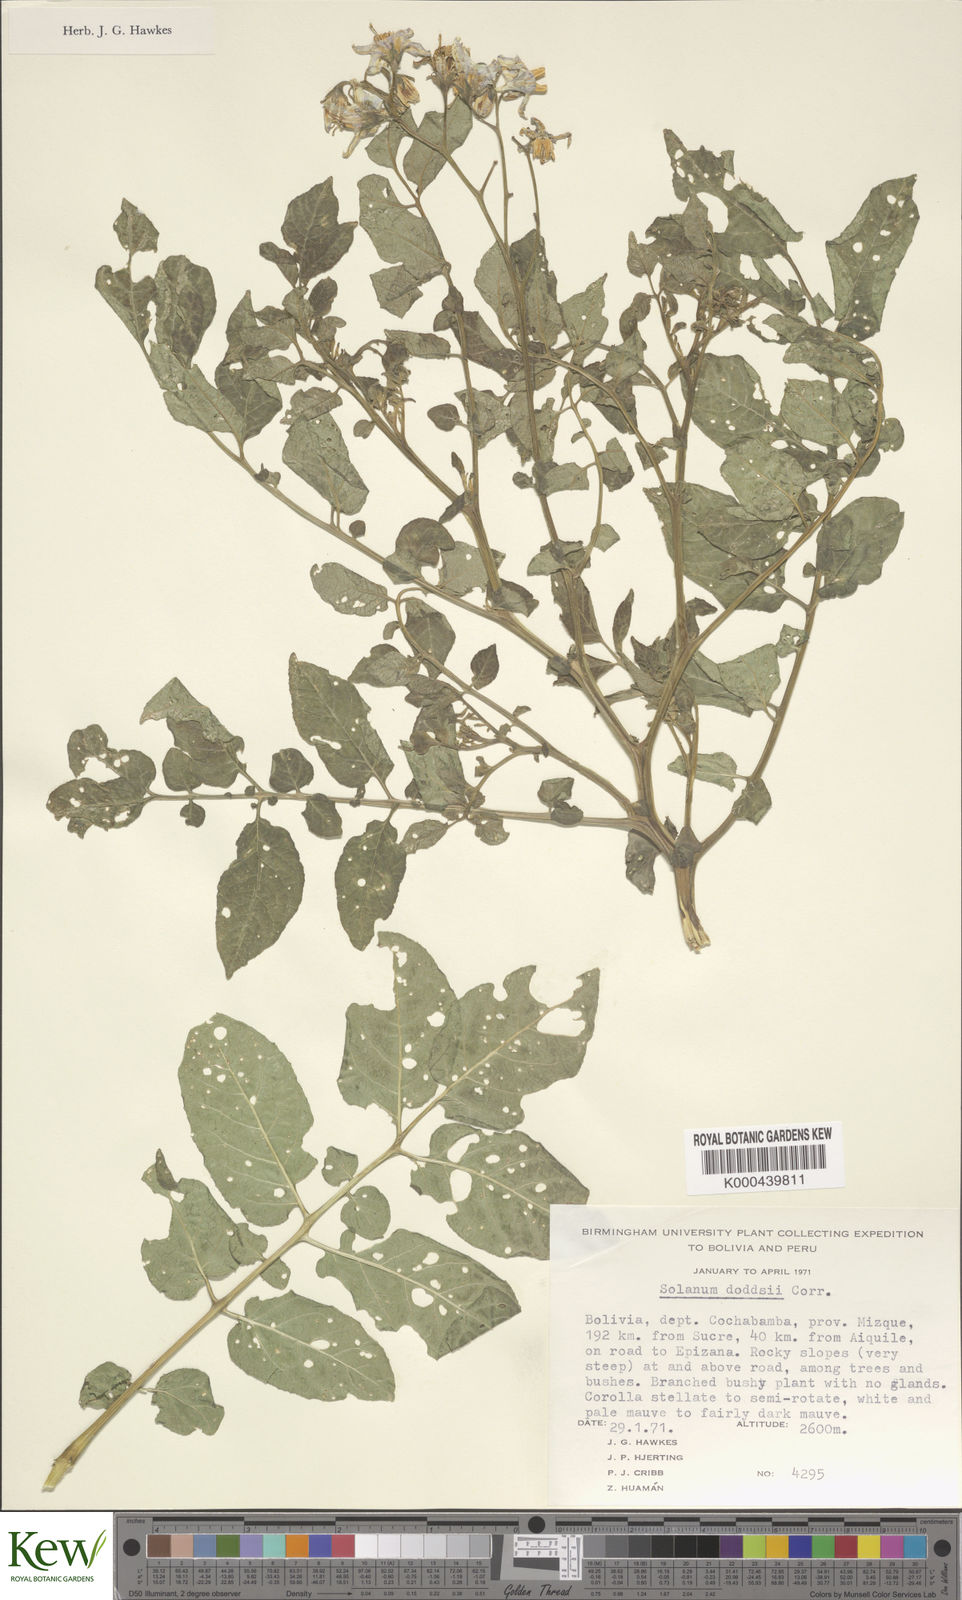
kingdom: Plantae
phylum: Tracheophyta
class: Magnoliopsida
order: Solanales
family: Solanaceae
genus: Solanum
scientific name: Solanum doddsii
